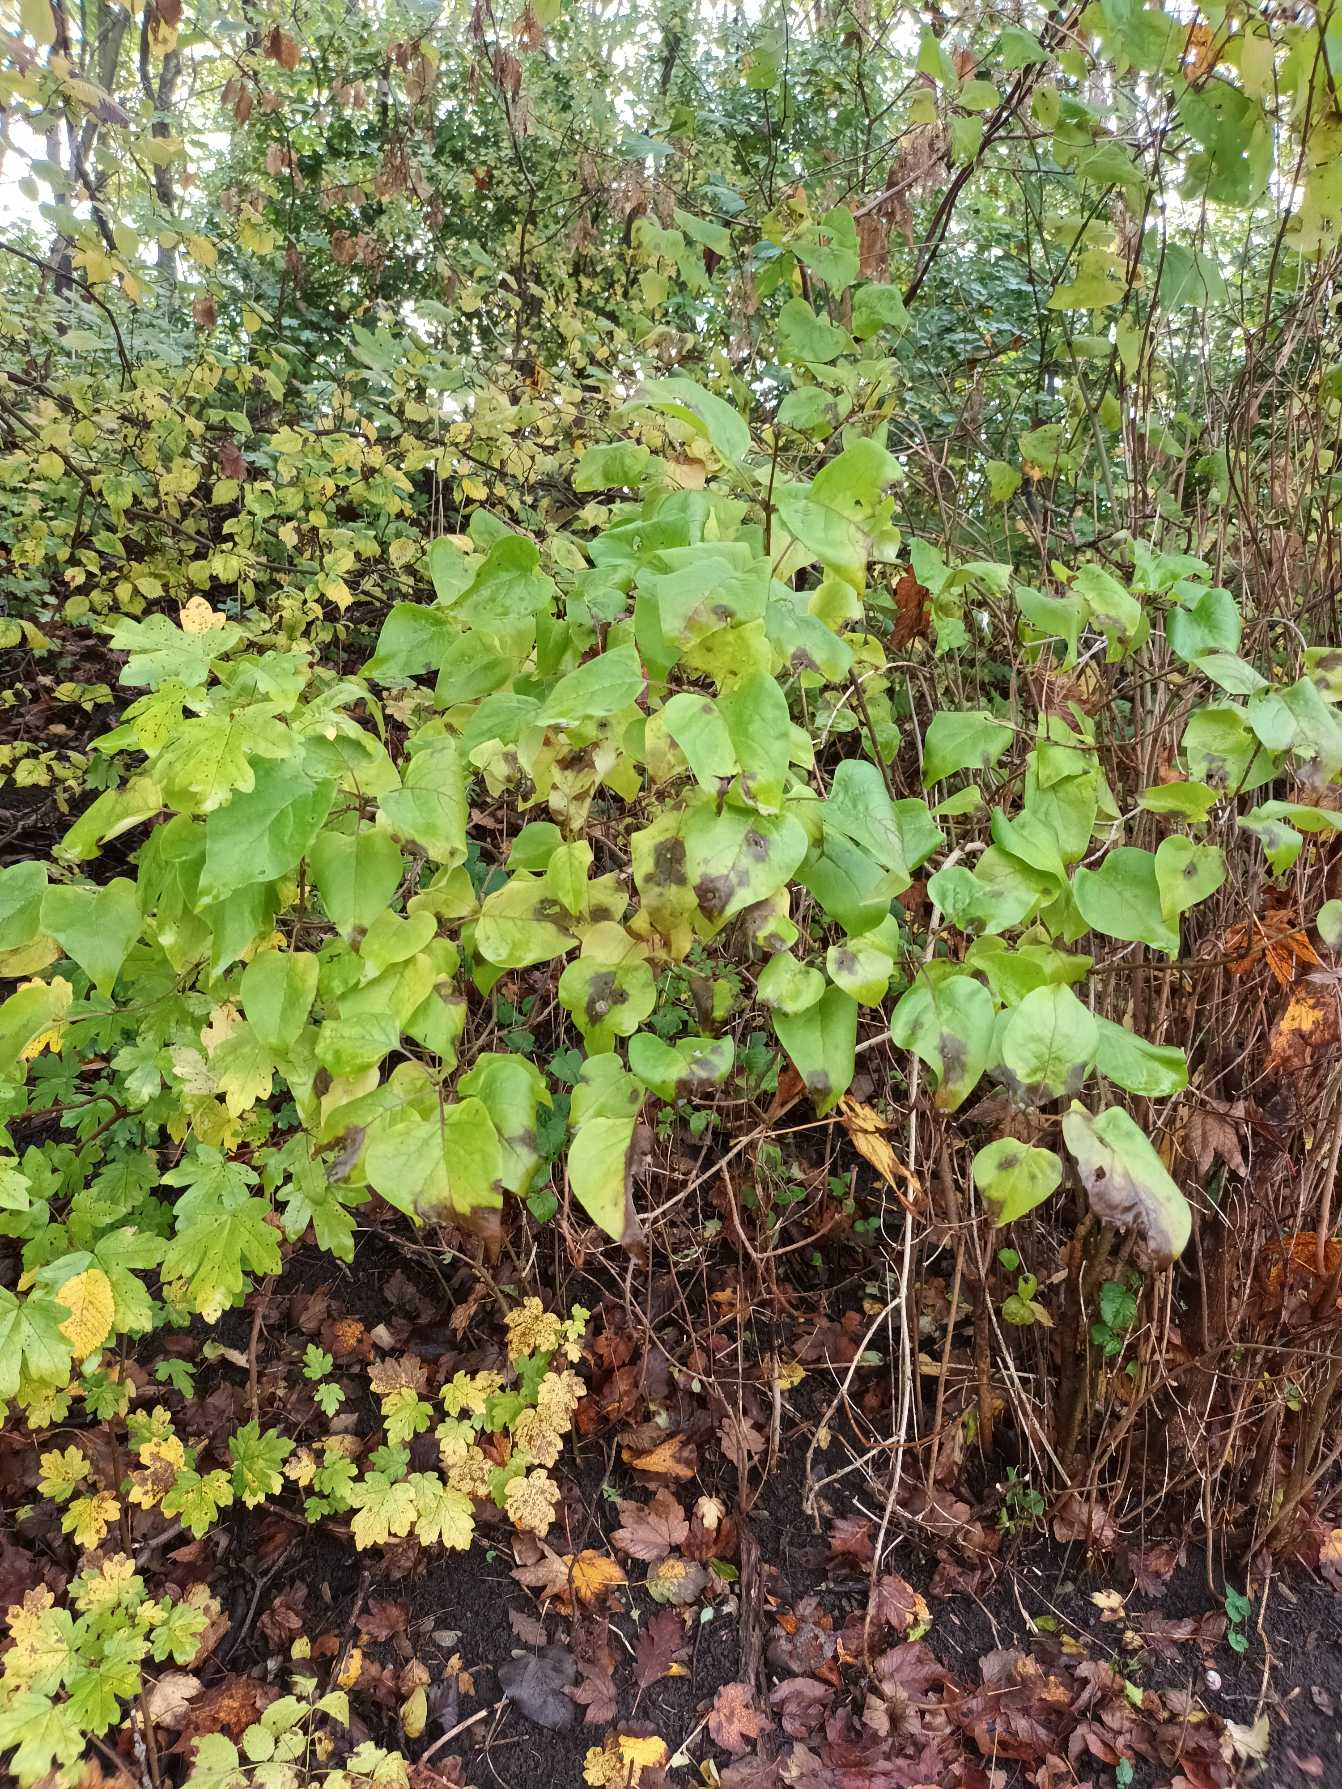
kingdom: Plantae
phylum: Tracheophyta
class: Magnoliopsida
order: Lamiales
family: Oleaceae
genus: Syringa
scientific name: Syringa vulgaris
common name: Syren
